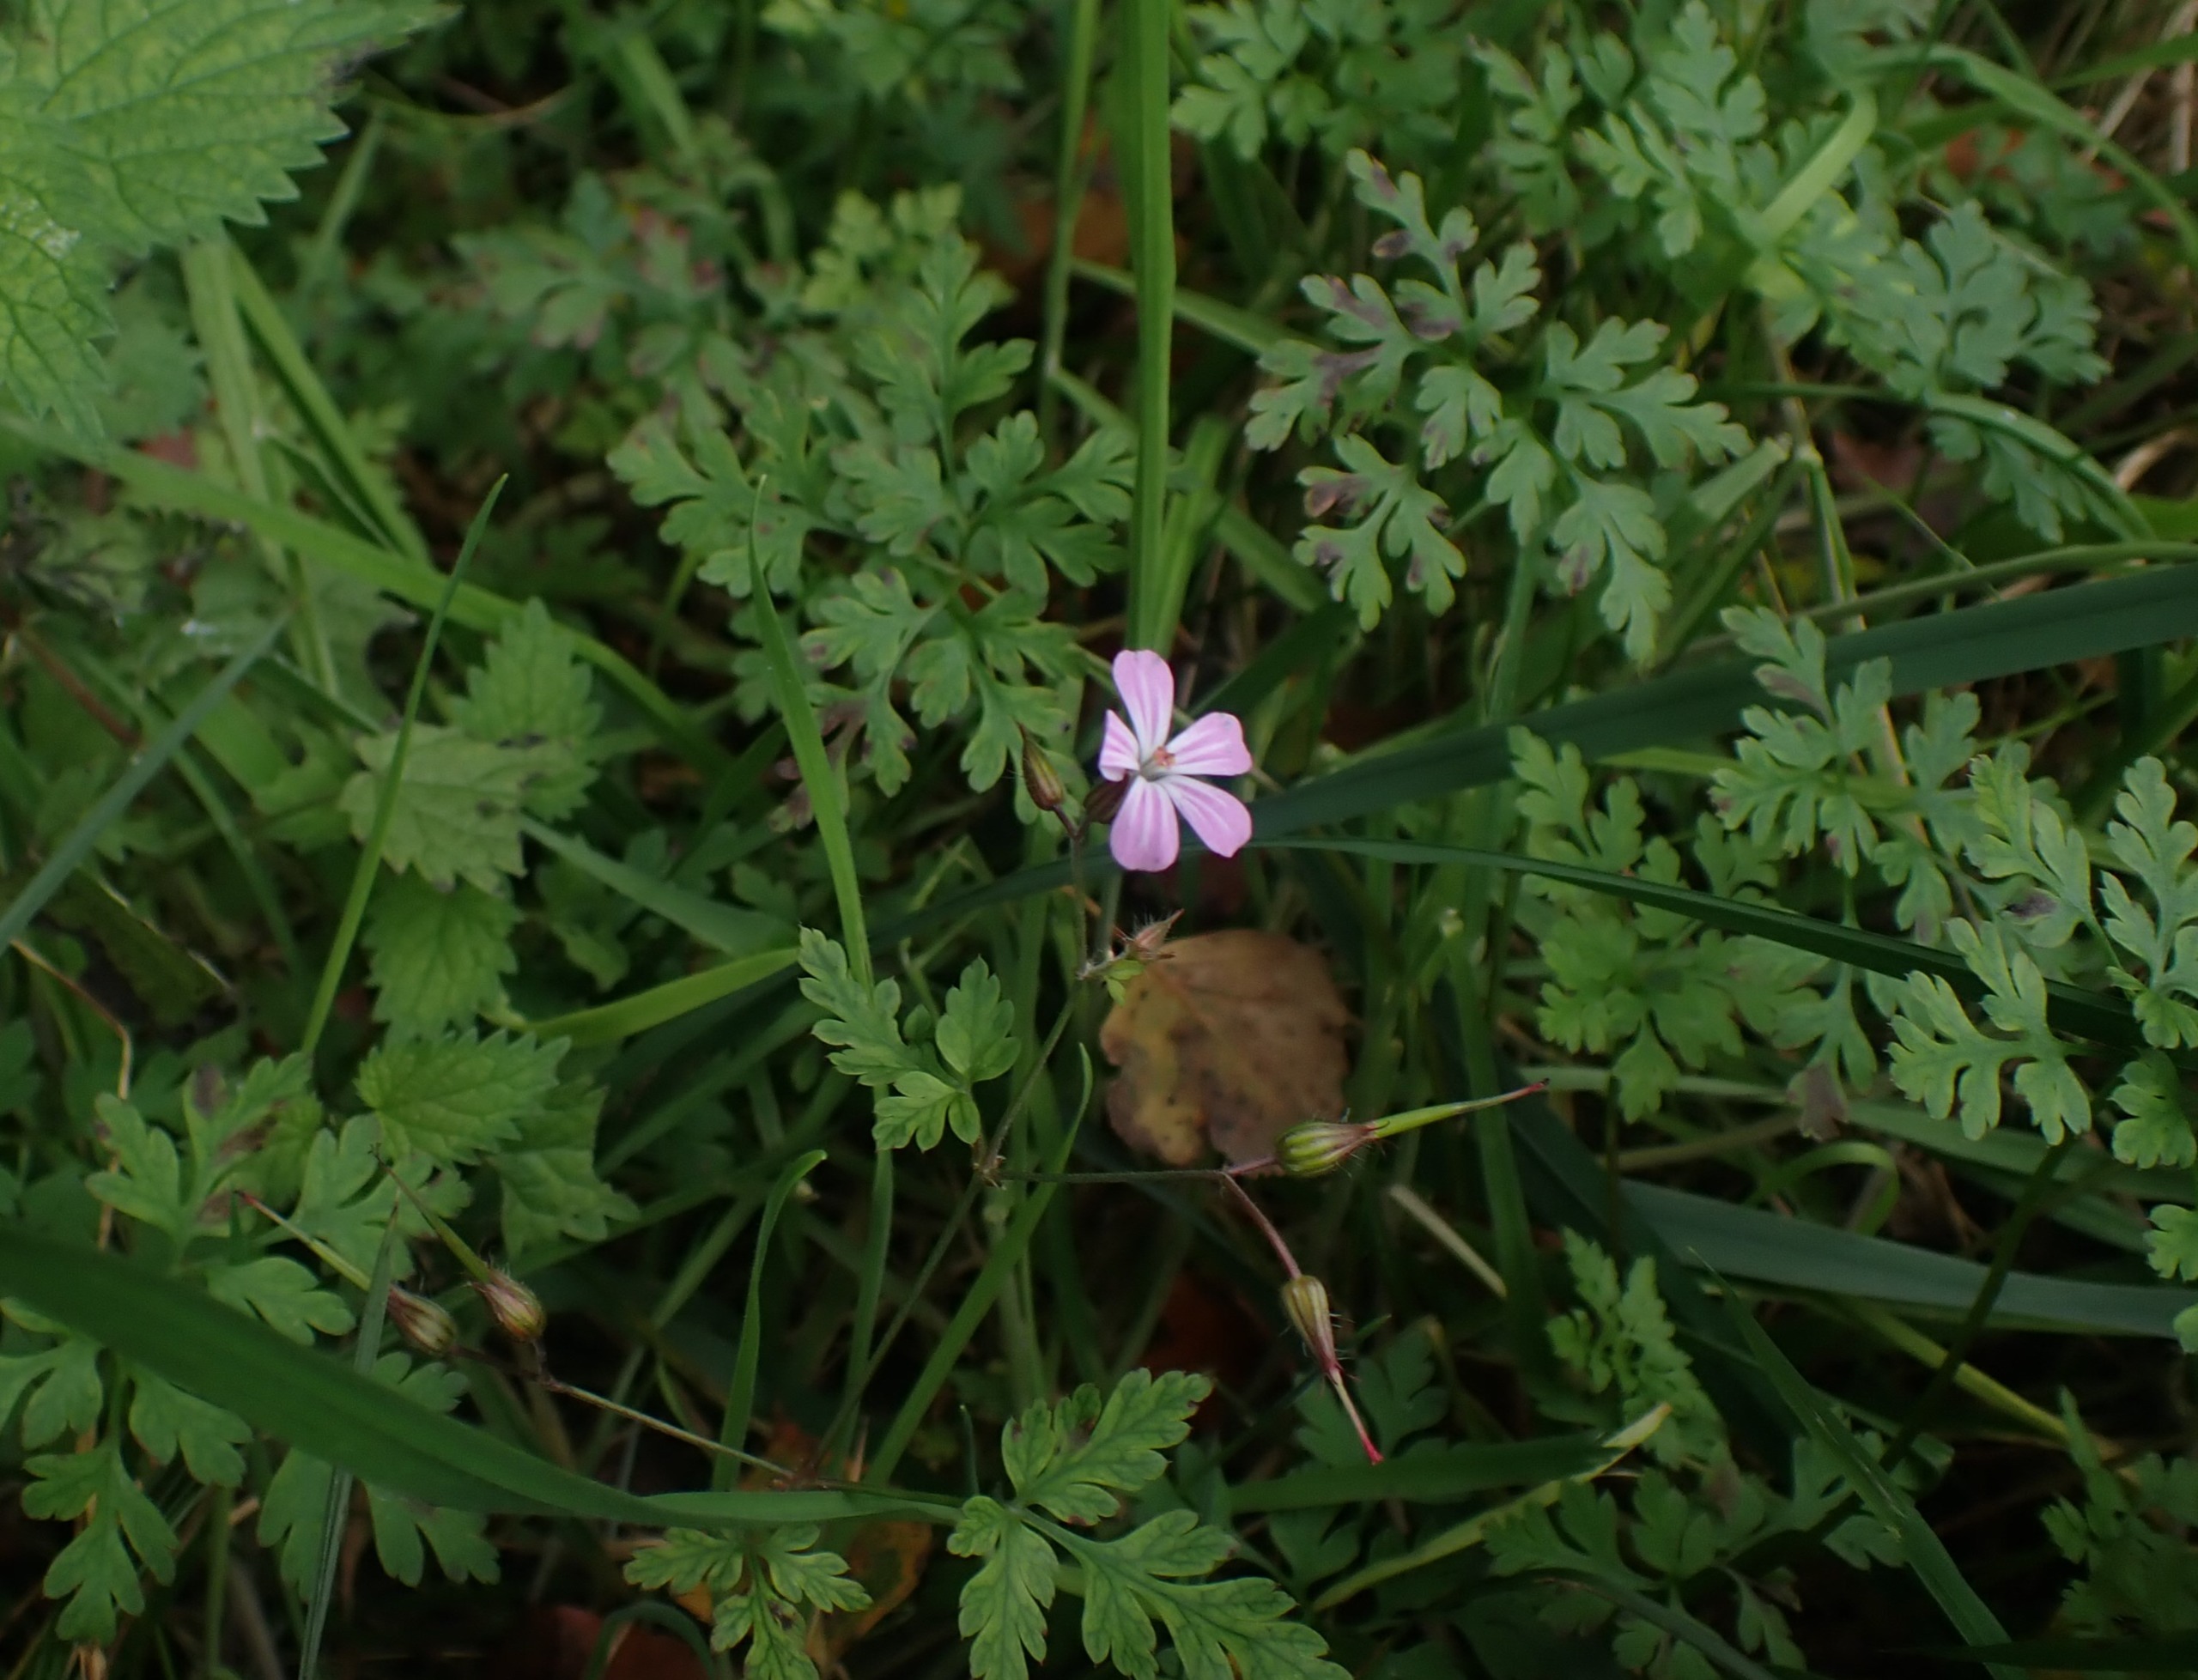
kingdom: Plantae
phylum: Tracheophyta
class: Magnoliopsida
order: Geraniales
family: Geraniaceae
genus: Geranium
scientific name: Geranium robertianum
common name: Stinkende storkenæb
